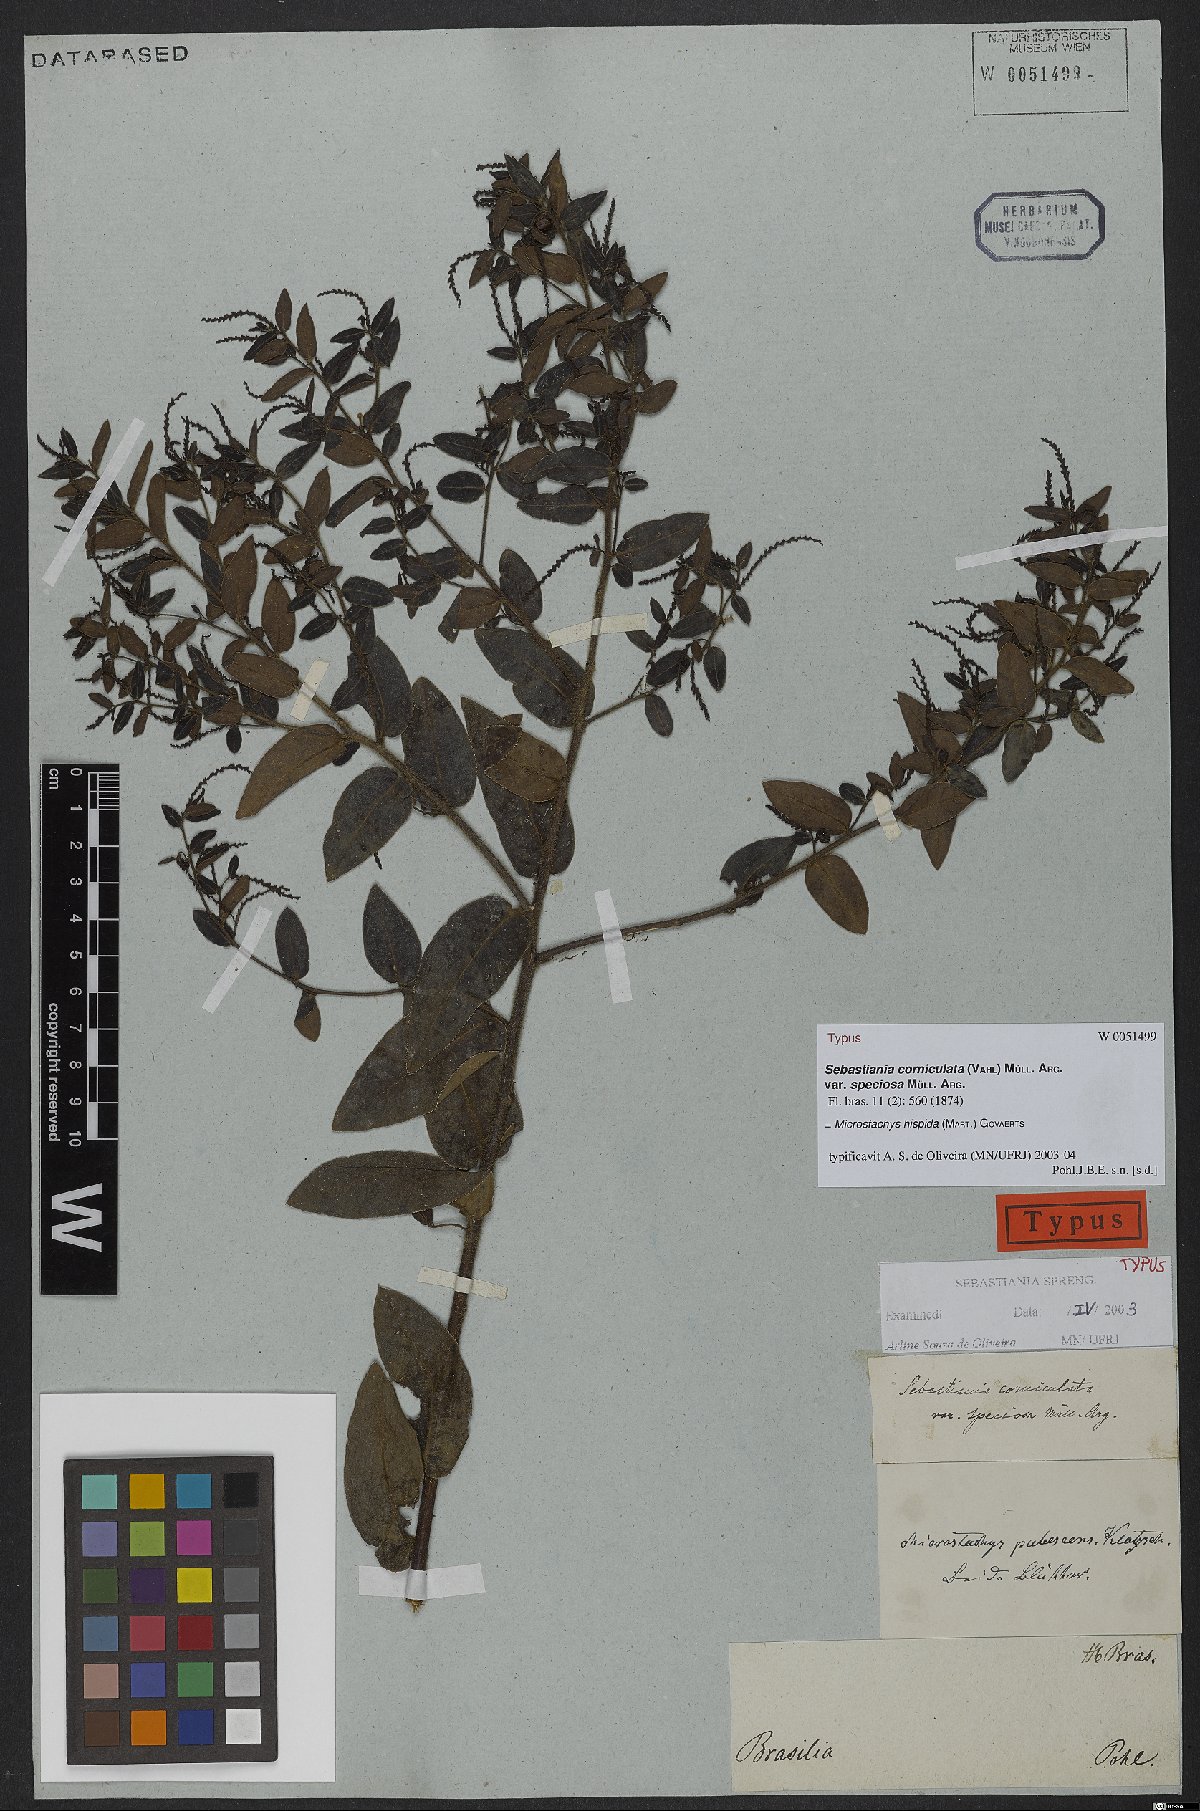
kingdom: Plantae
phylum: Tracheophyta
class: Magnoliopsida
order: Malpighiales
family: Euphorbiaceae
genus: Microstachys
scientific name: Microstachys hispida
